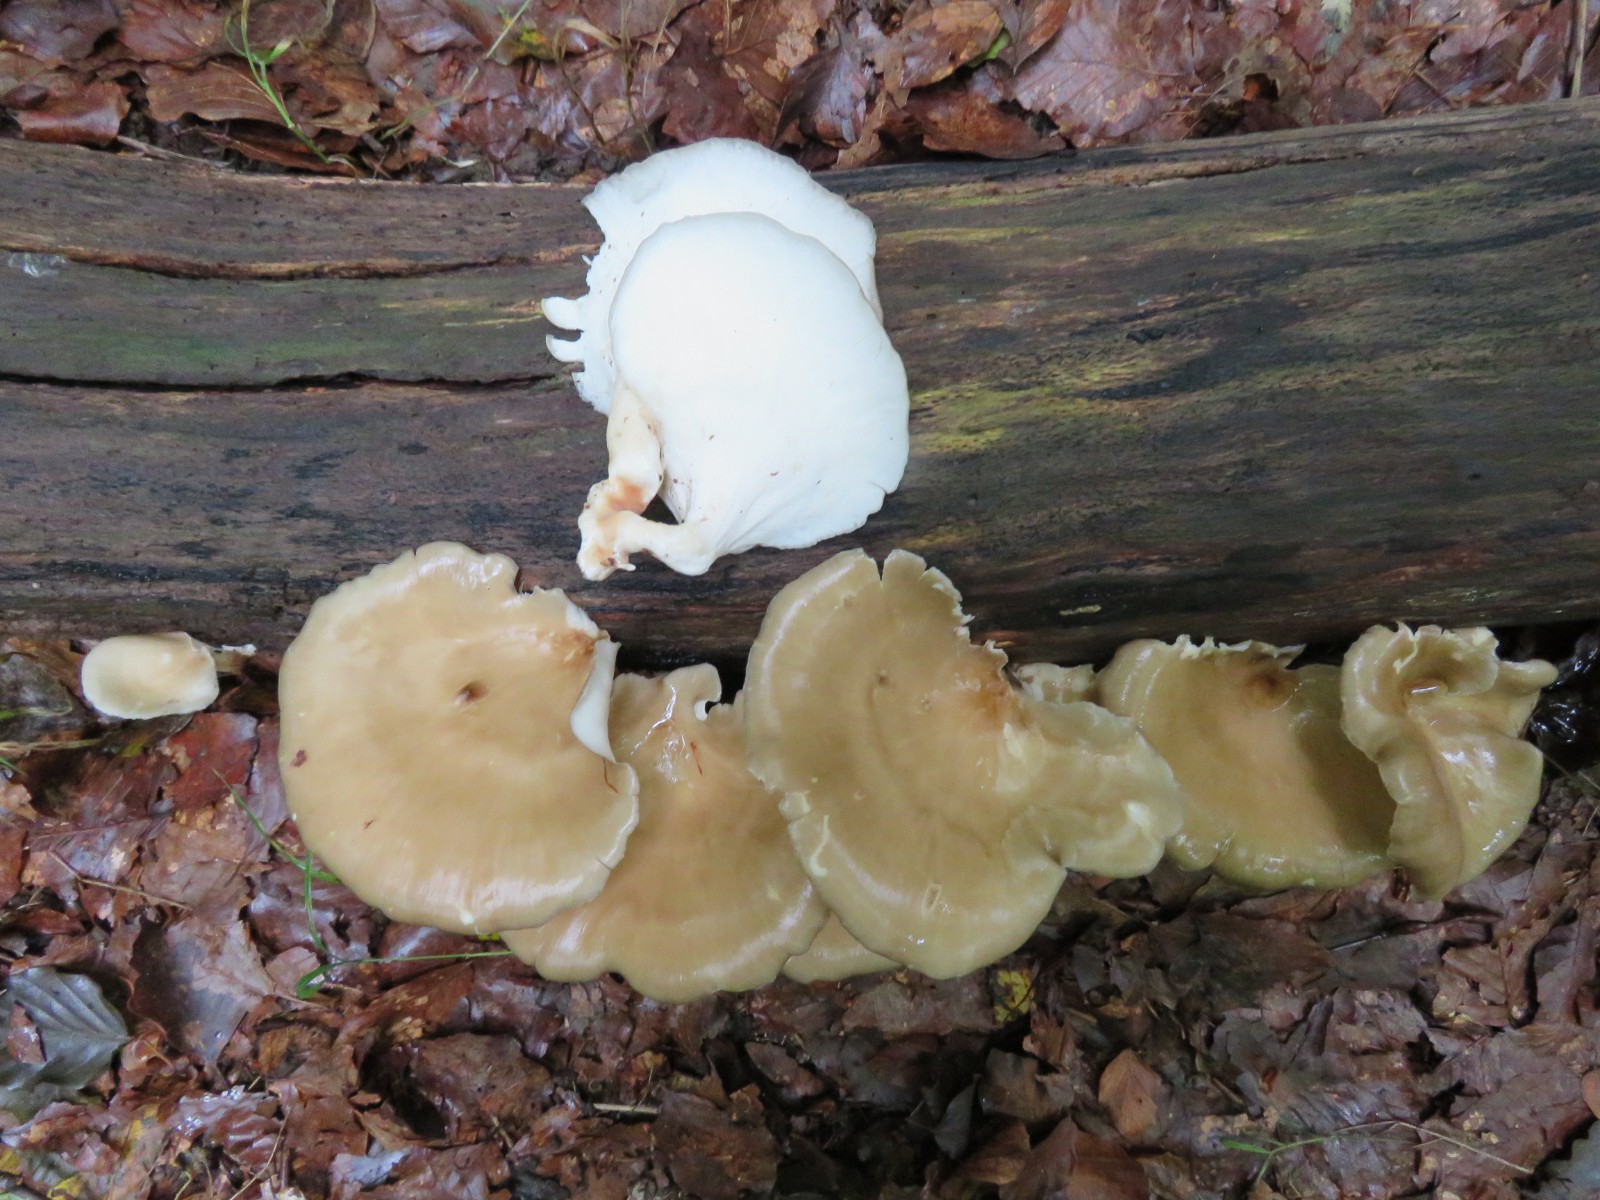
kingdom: Fungi
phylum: Basidiomycota
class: Agaricomycetes
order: Polyporales
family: Polyporaceae
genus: Picipes
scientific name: Picipes badius
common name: kastaniebrun stilkporesvamp
